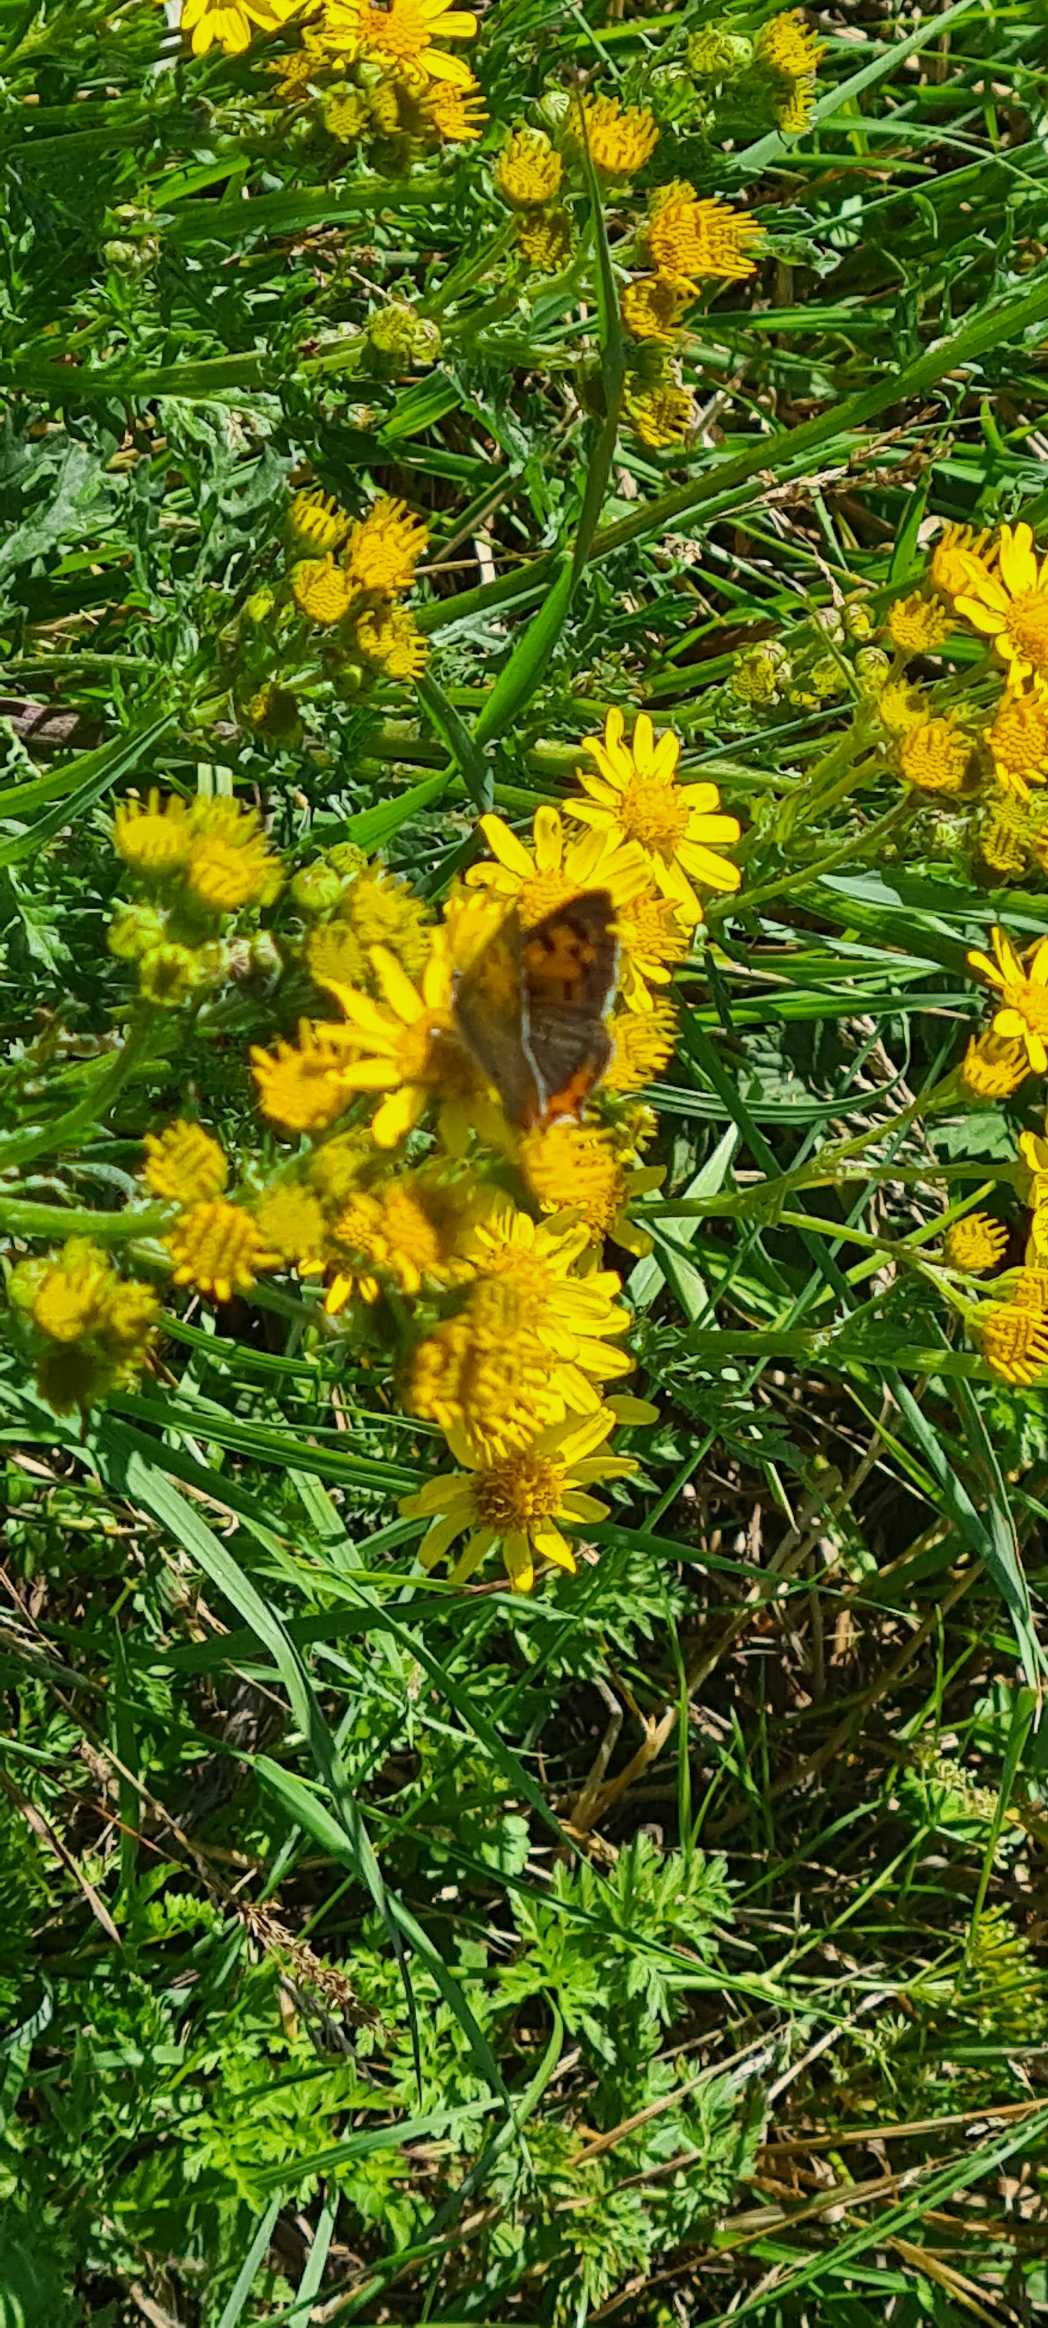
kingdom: Animalia
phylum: Arthropoda
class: Insecta
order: Lepidoptera
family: Lycaenidae
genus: Lycaena
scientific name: Lycaena phlaeas
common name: Lille ildfugl
